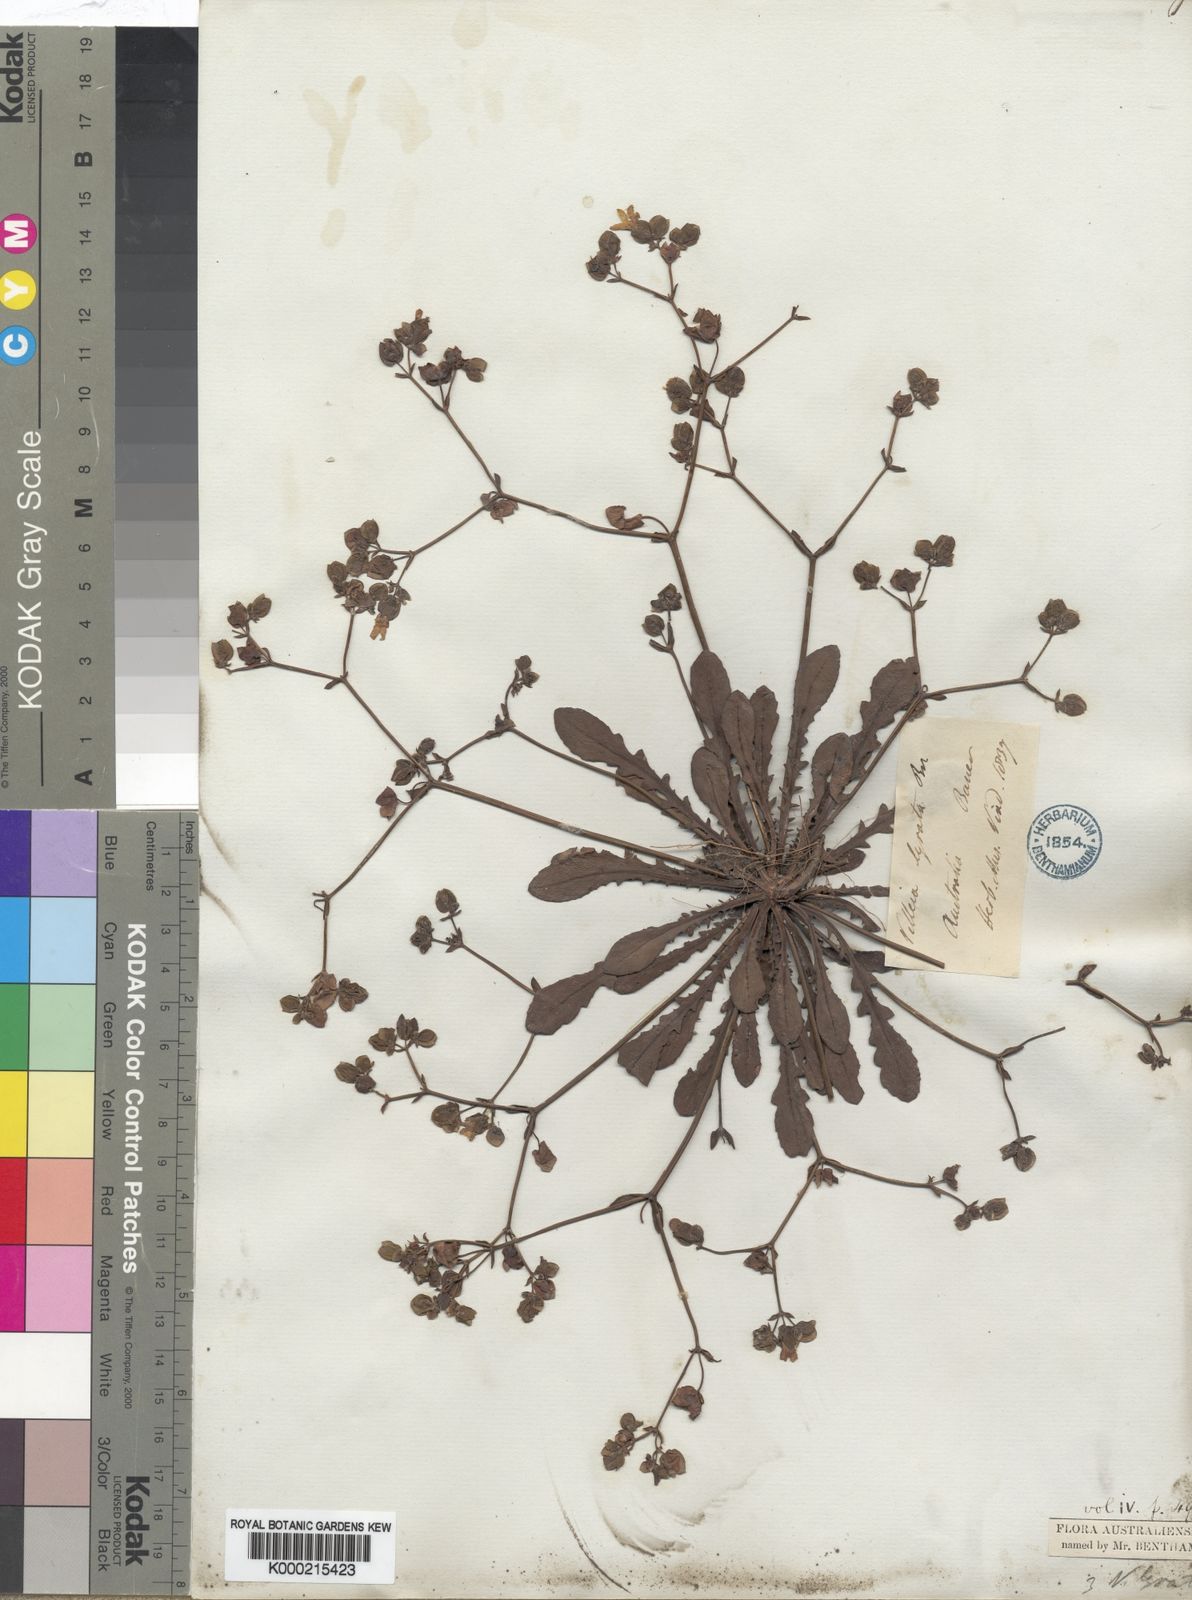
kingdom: Plantae
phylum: Tracheophyta
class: Magnoliopsida
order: Asterales
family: Goodeniaceae
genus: Goodenia
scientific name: Goodenia caroliniana
